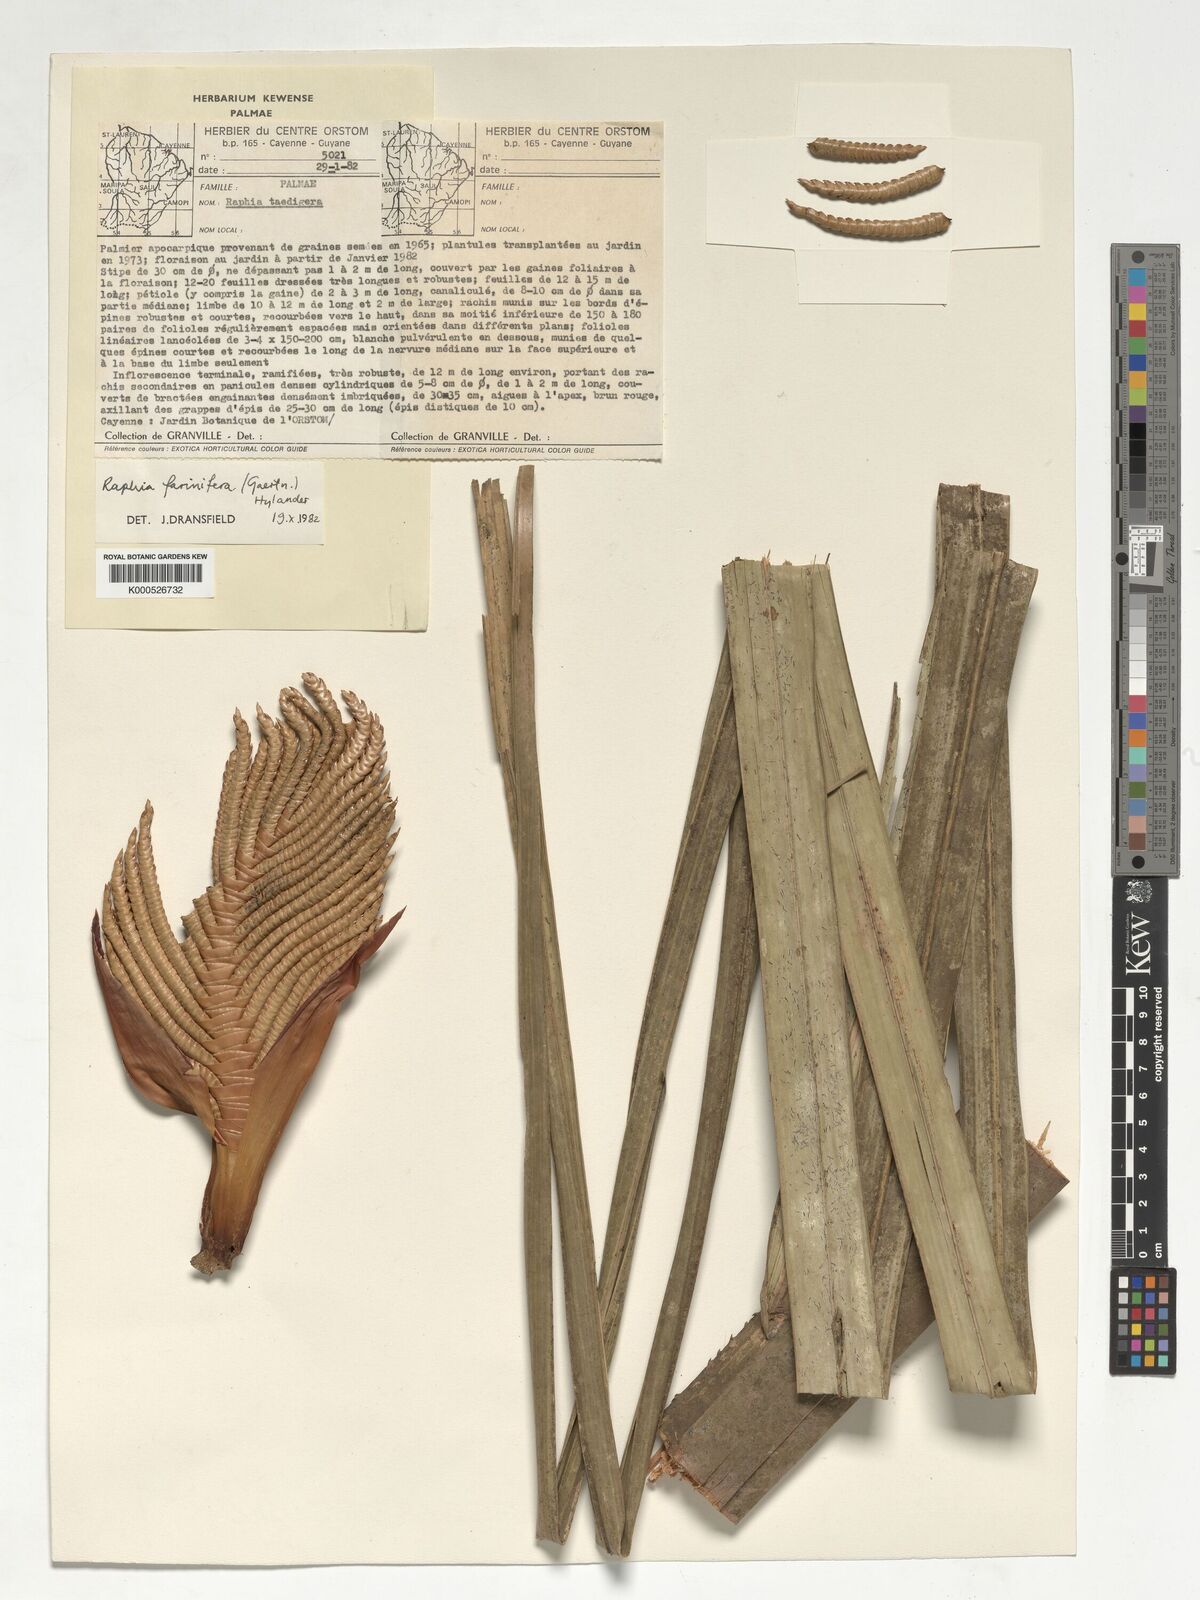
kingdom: Plantae
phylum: Tracheophyta
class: Liliopsida
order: Arecales
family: Arecaceae
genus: Raphia
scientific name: Raphia farinifera
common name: Raphia palm
